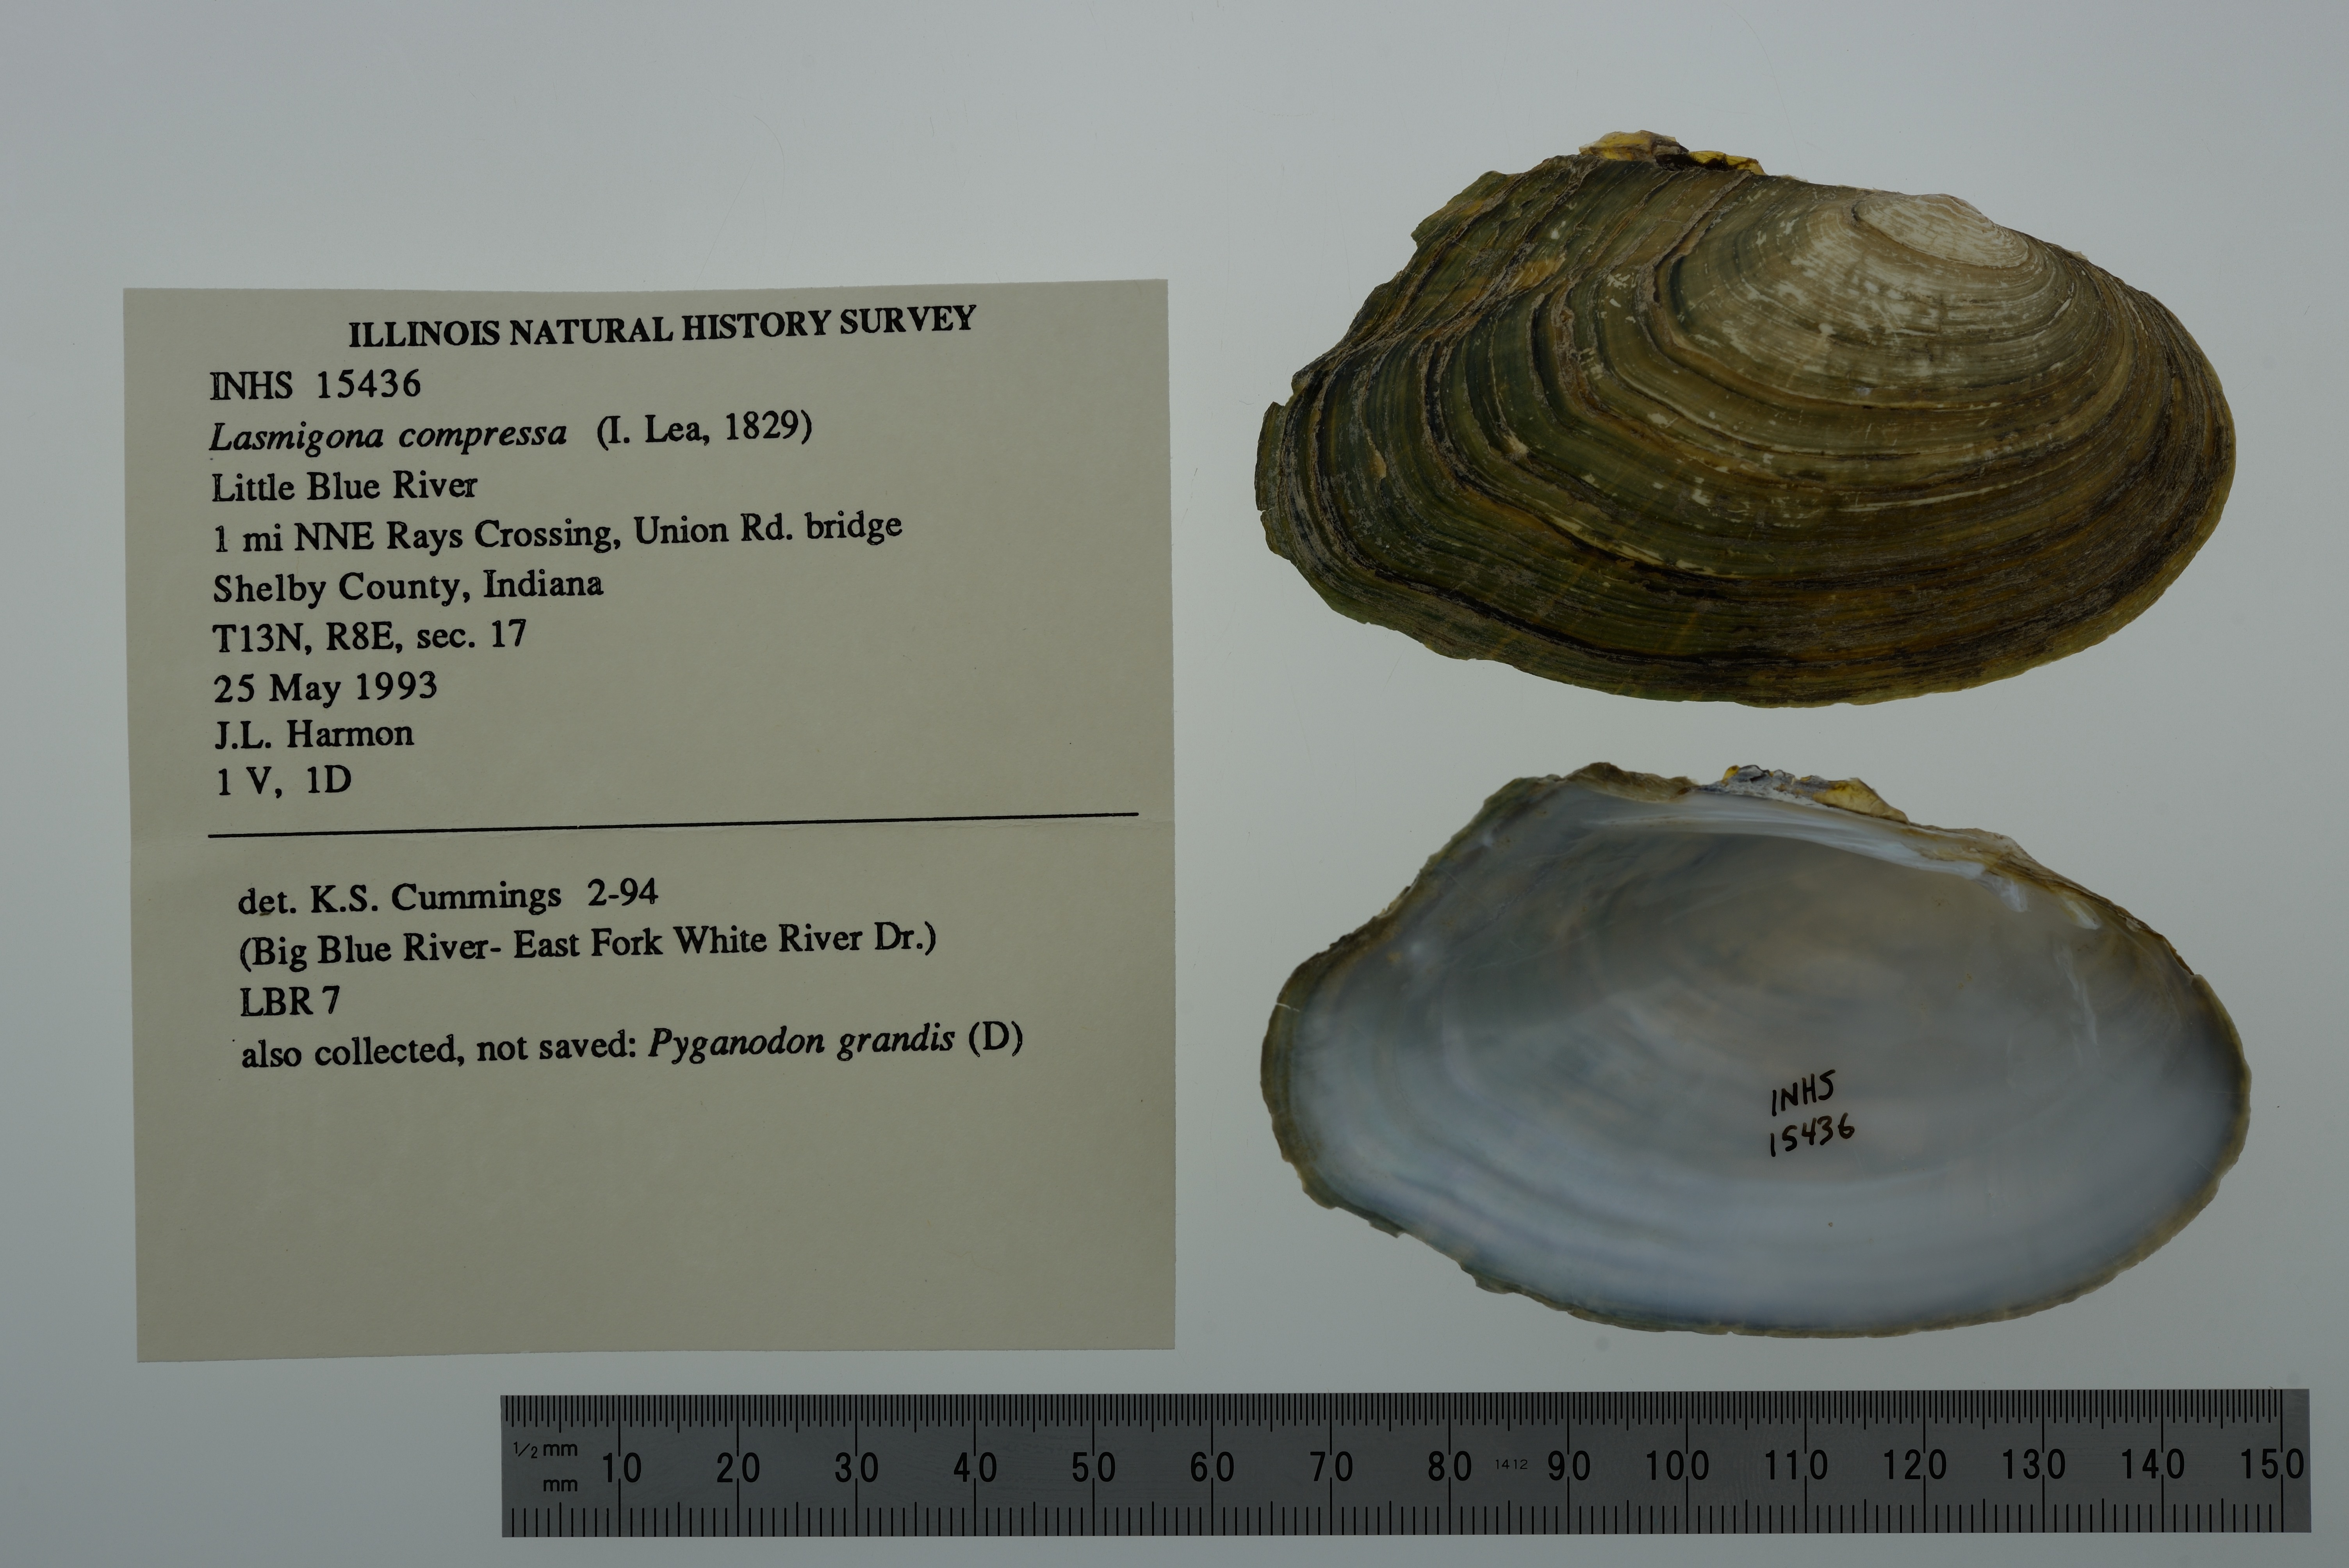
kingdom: Animalia
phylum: Mollusca
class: Bivalvia
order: Unionida
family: Unionidae
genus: Lasmigona
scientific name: Lasmigona compressa
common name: Creek heelsplitter
